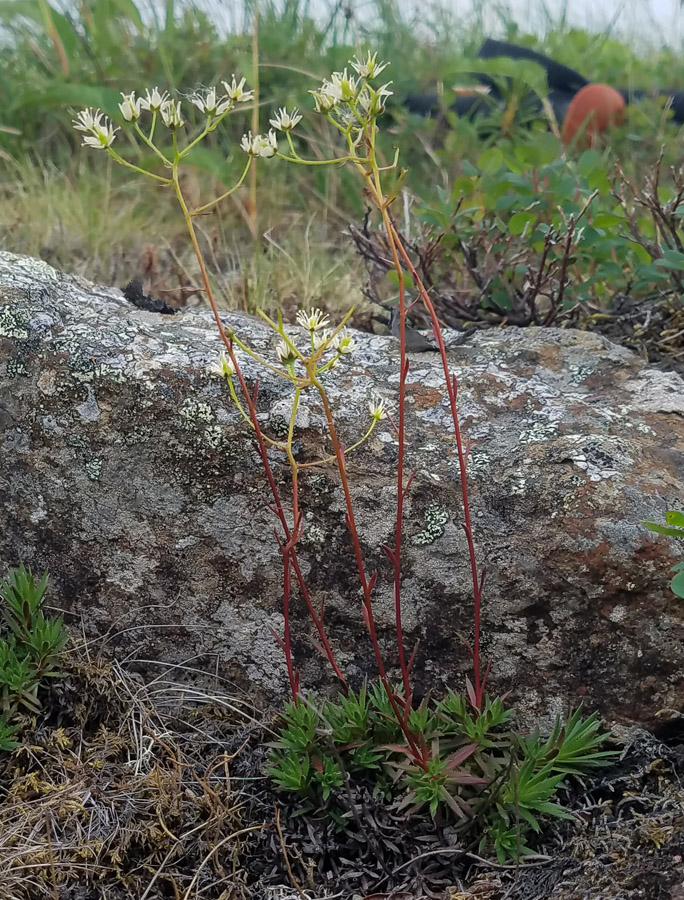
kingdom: Plantae
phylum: Tracheophyta
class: Magnoliopsida
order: Saxifragales
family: Saxifragaceae
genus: Saxifraga
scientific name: Saxifraga bronchialis
